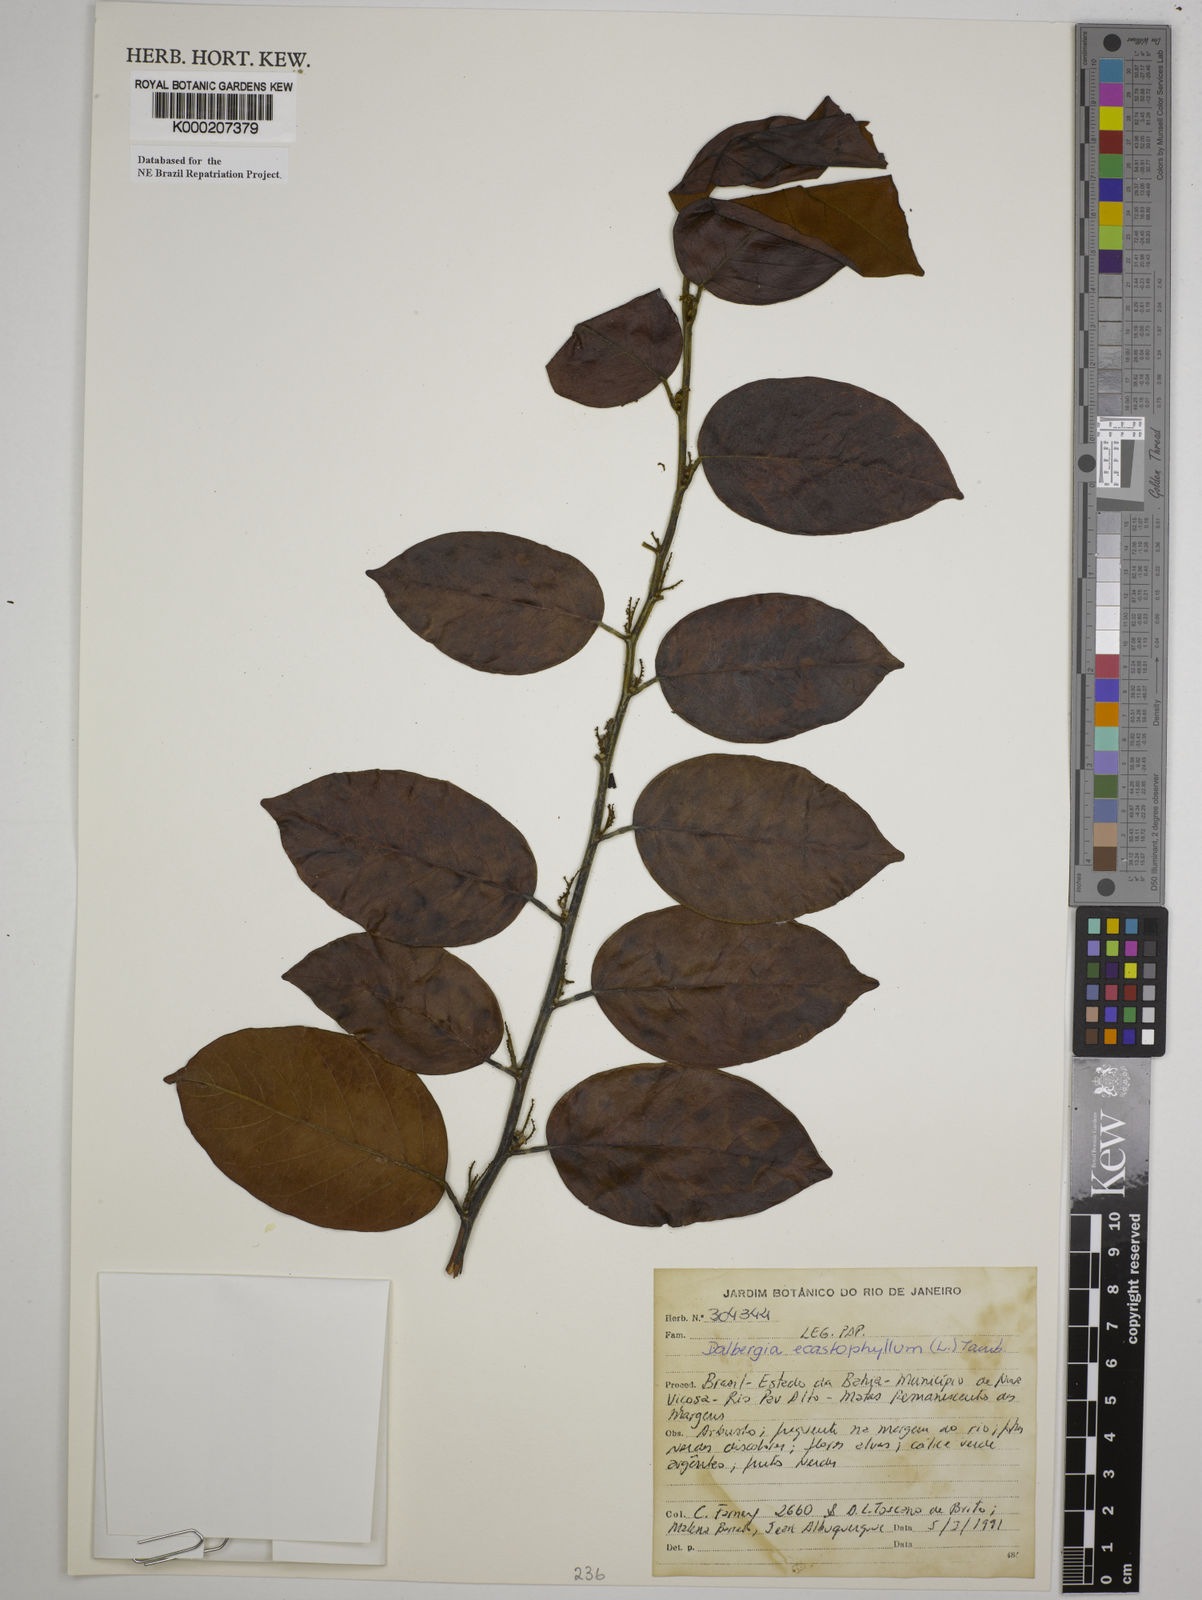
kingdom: Plantae
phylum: Tracheophyta
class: Magnoliopsida
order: Fabales
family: Fabaceae
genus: Dalbergia
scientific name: Dalbergia
